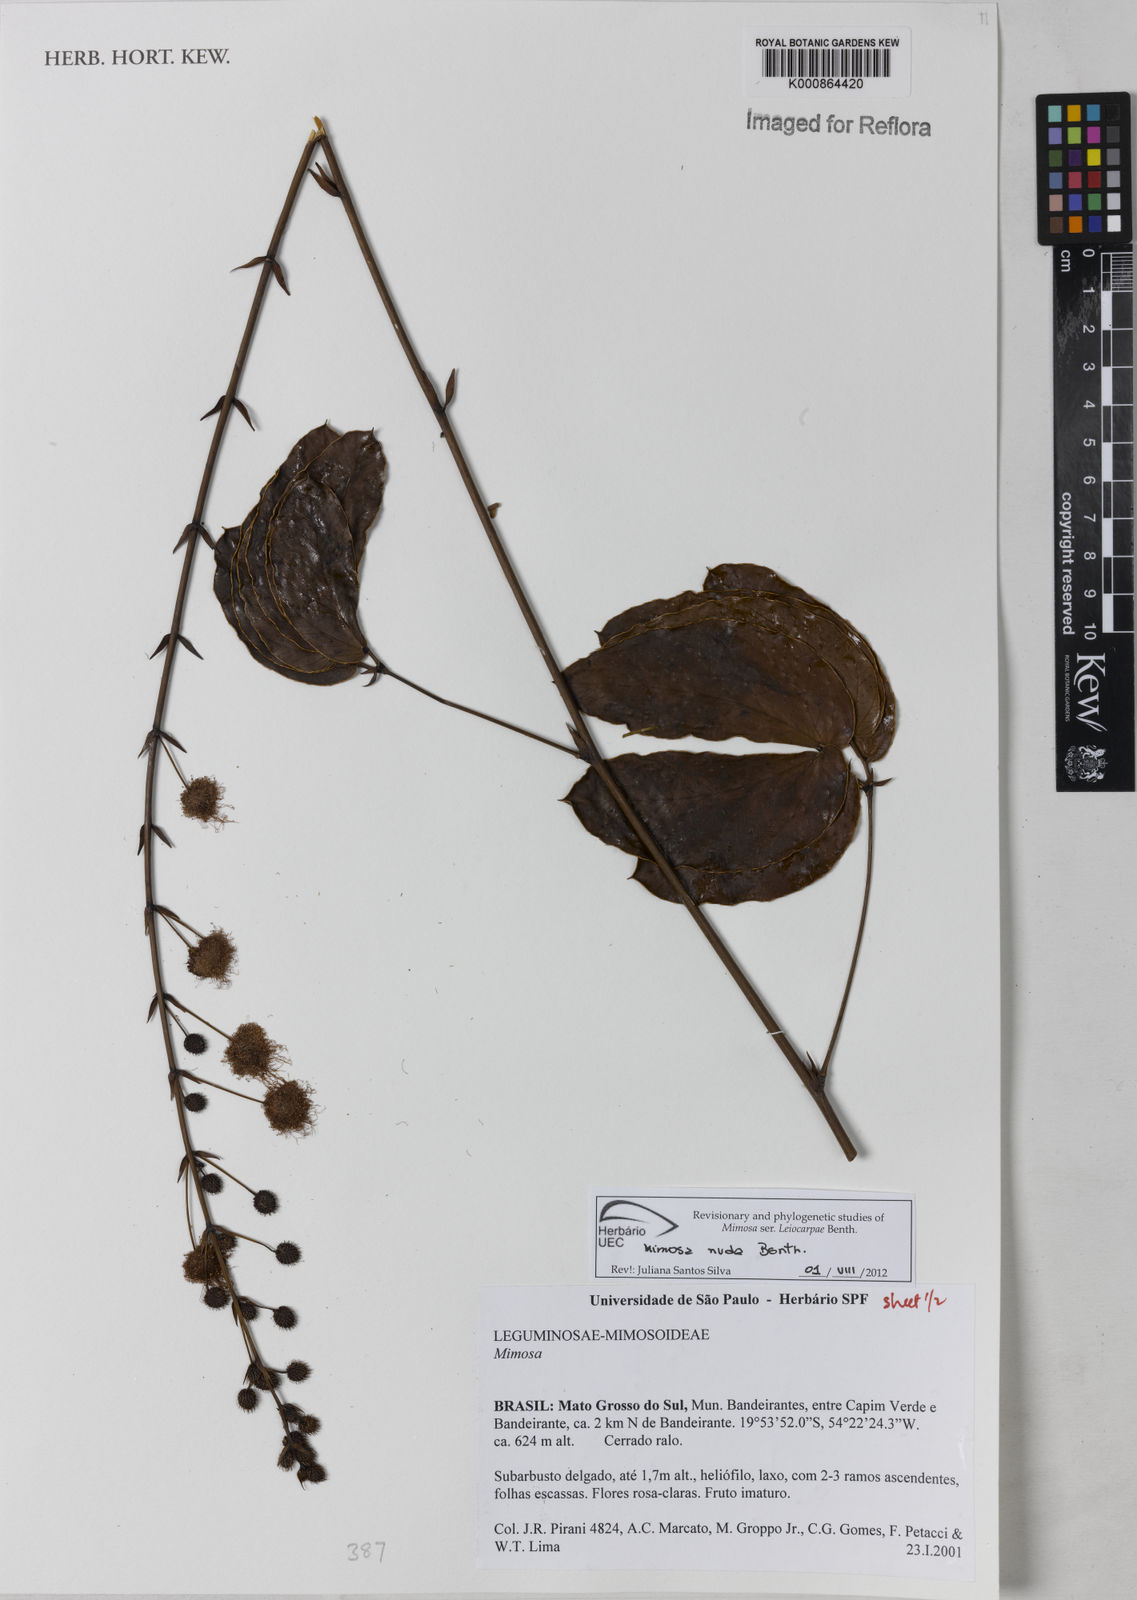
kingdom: Plantae
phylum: Tracheophyta
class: Magnoliopsida
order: Fabales
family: Fabaceae
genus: Mimosa
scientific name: Mimosa debilis
